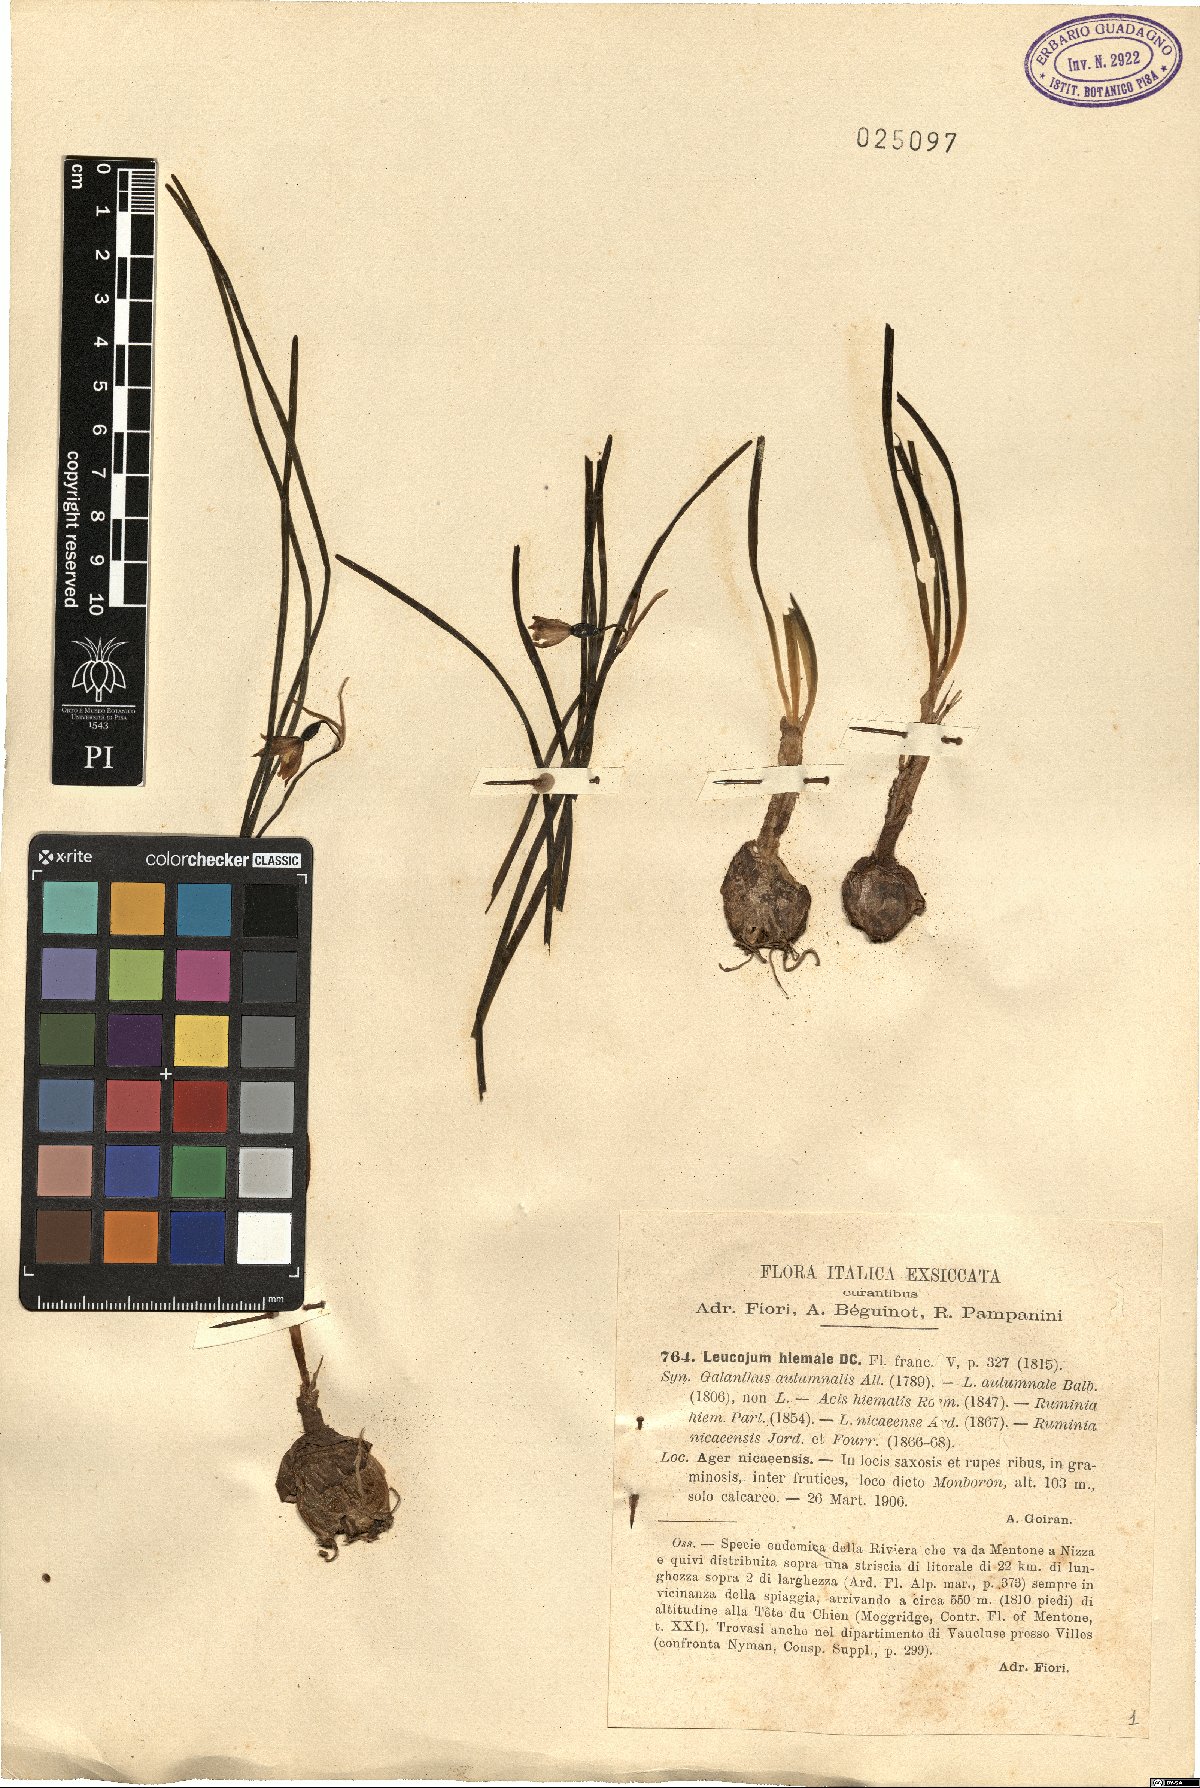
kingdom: Plantae
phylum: Tracheophyta
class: Liliopsida
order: Asparagales
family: Amaryllidaceae
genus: Acis
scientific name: Acis rosea
